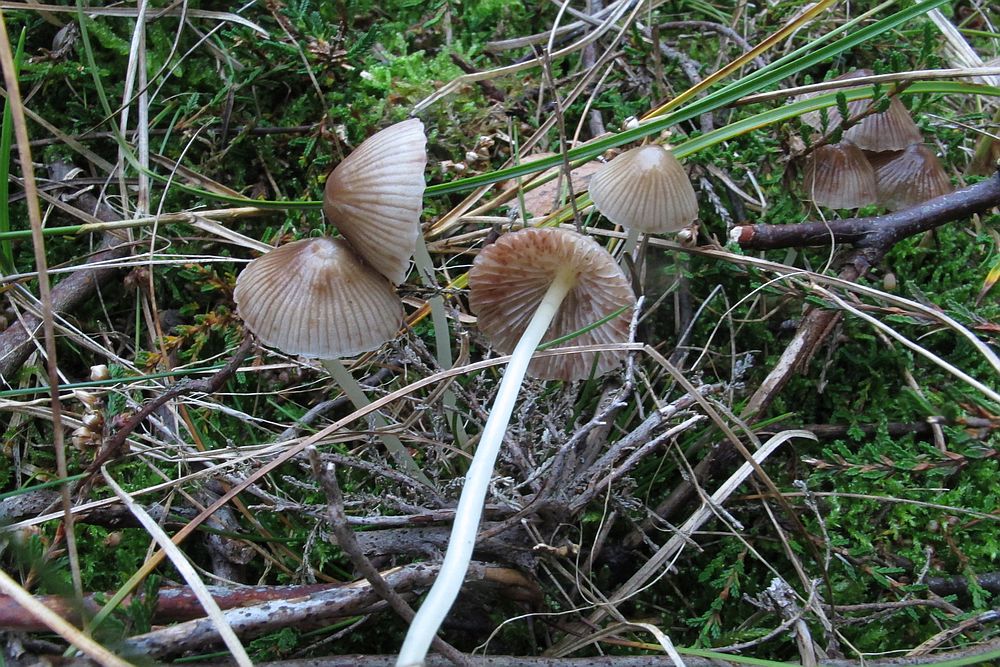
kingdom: Fungi
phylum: Basidiomycota
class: Agaricomycetes
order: Agaricales
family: Mycenaceae
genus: Mycena
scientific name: Mycena zephirus
